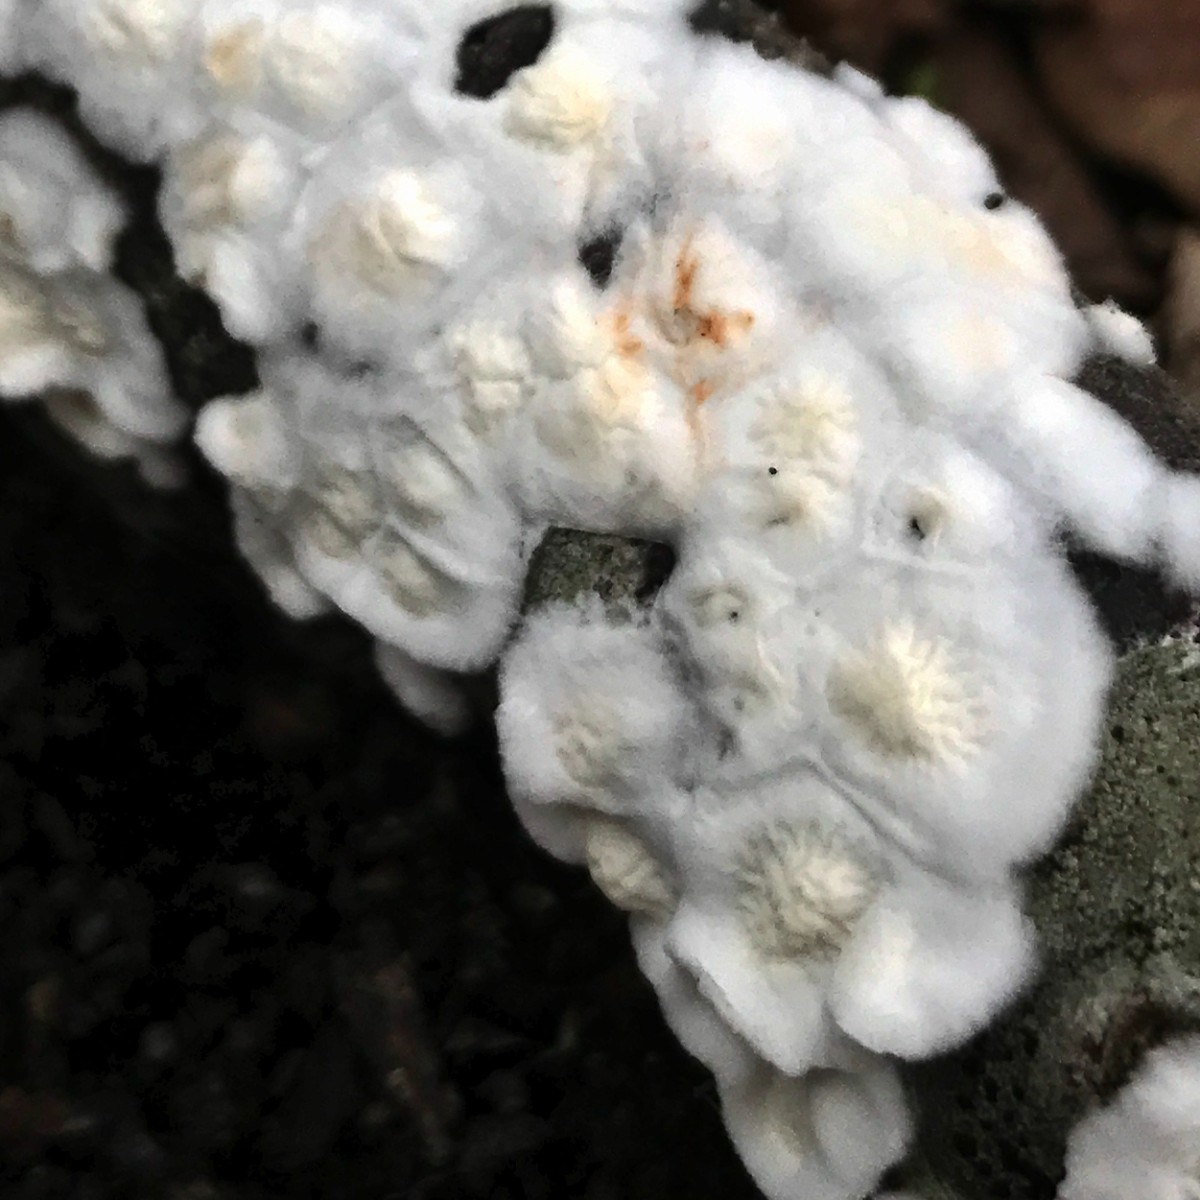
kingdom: Fungi
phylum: Basidiomycota
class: Agaricomycetes
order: Polyporales
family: Irpicaceae
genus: Byssomerulius
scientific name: Byssomerulius corium
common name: læder-åresvamp
